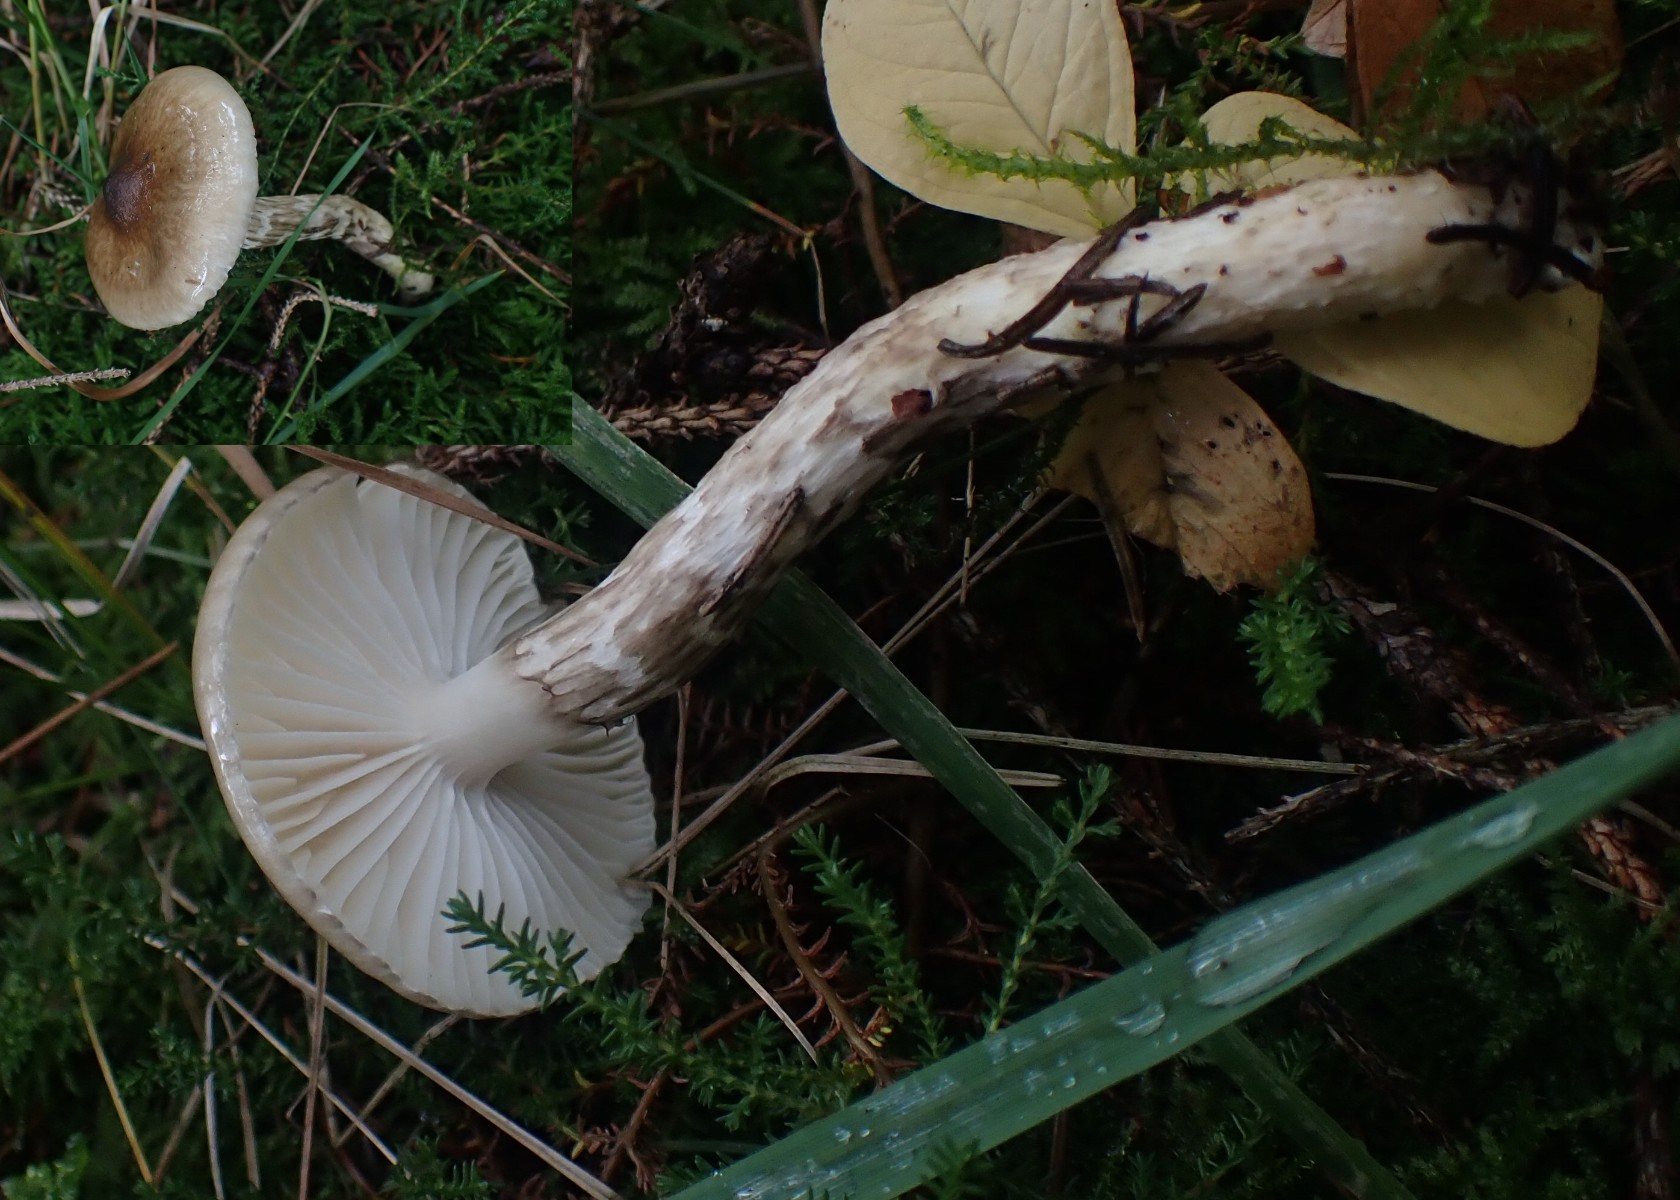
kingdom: Fungi
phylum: Basidiomycota
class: Agaricomycetes
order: Agaricales
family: Hygrophoraceae
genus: Hygrophorus
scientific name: Hygrophorus olivaceoalbus
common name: hvidbrun sneglehat
